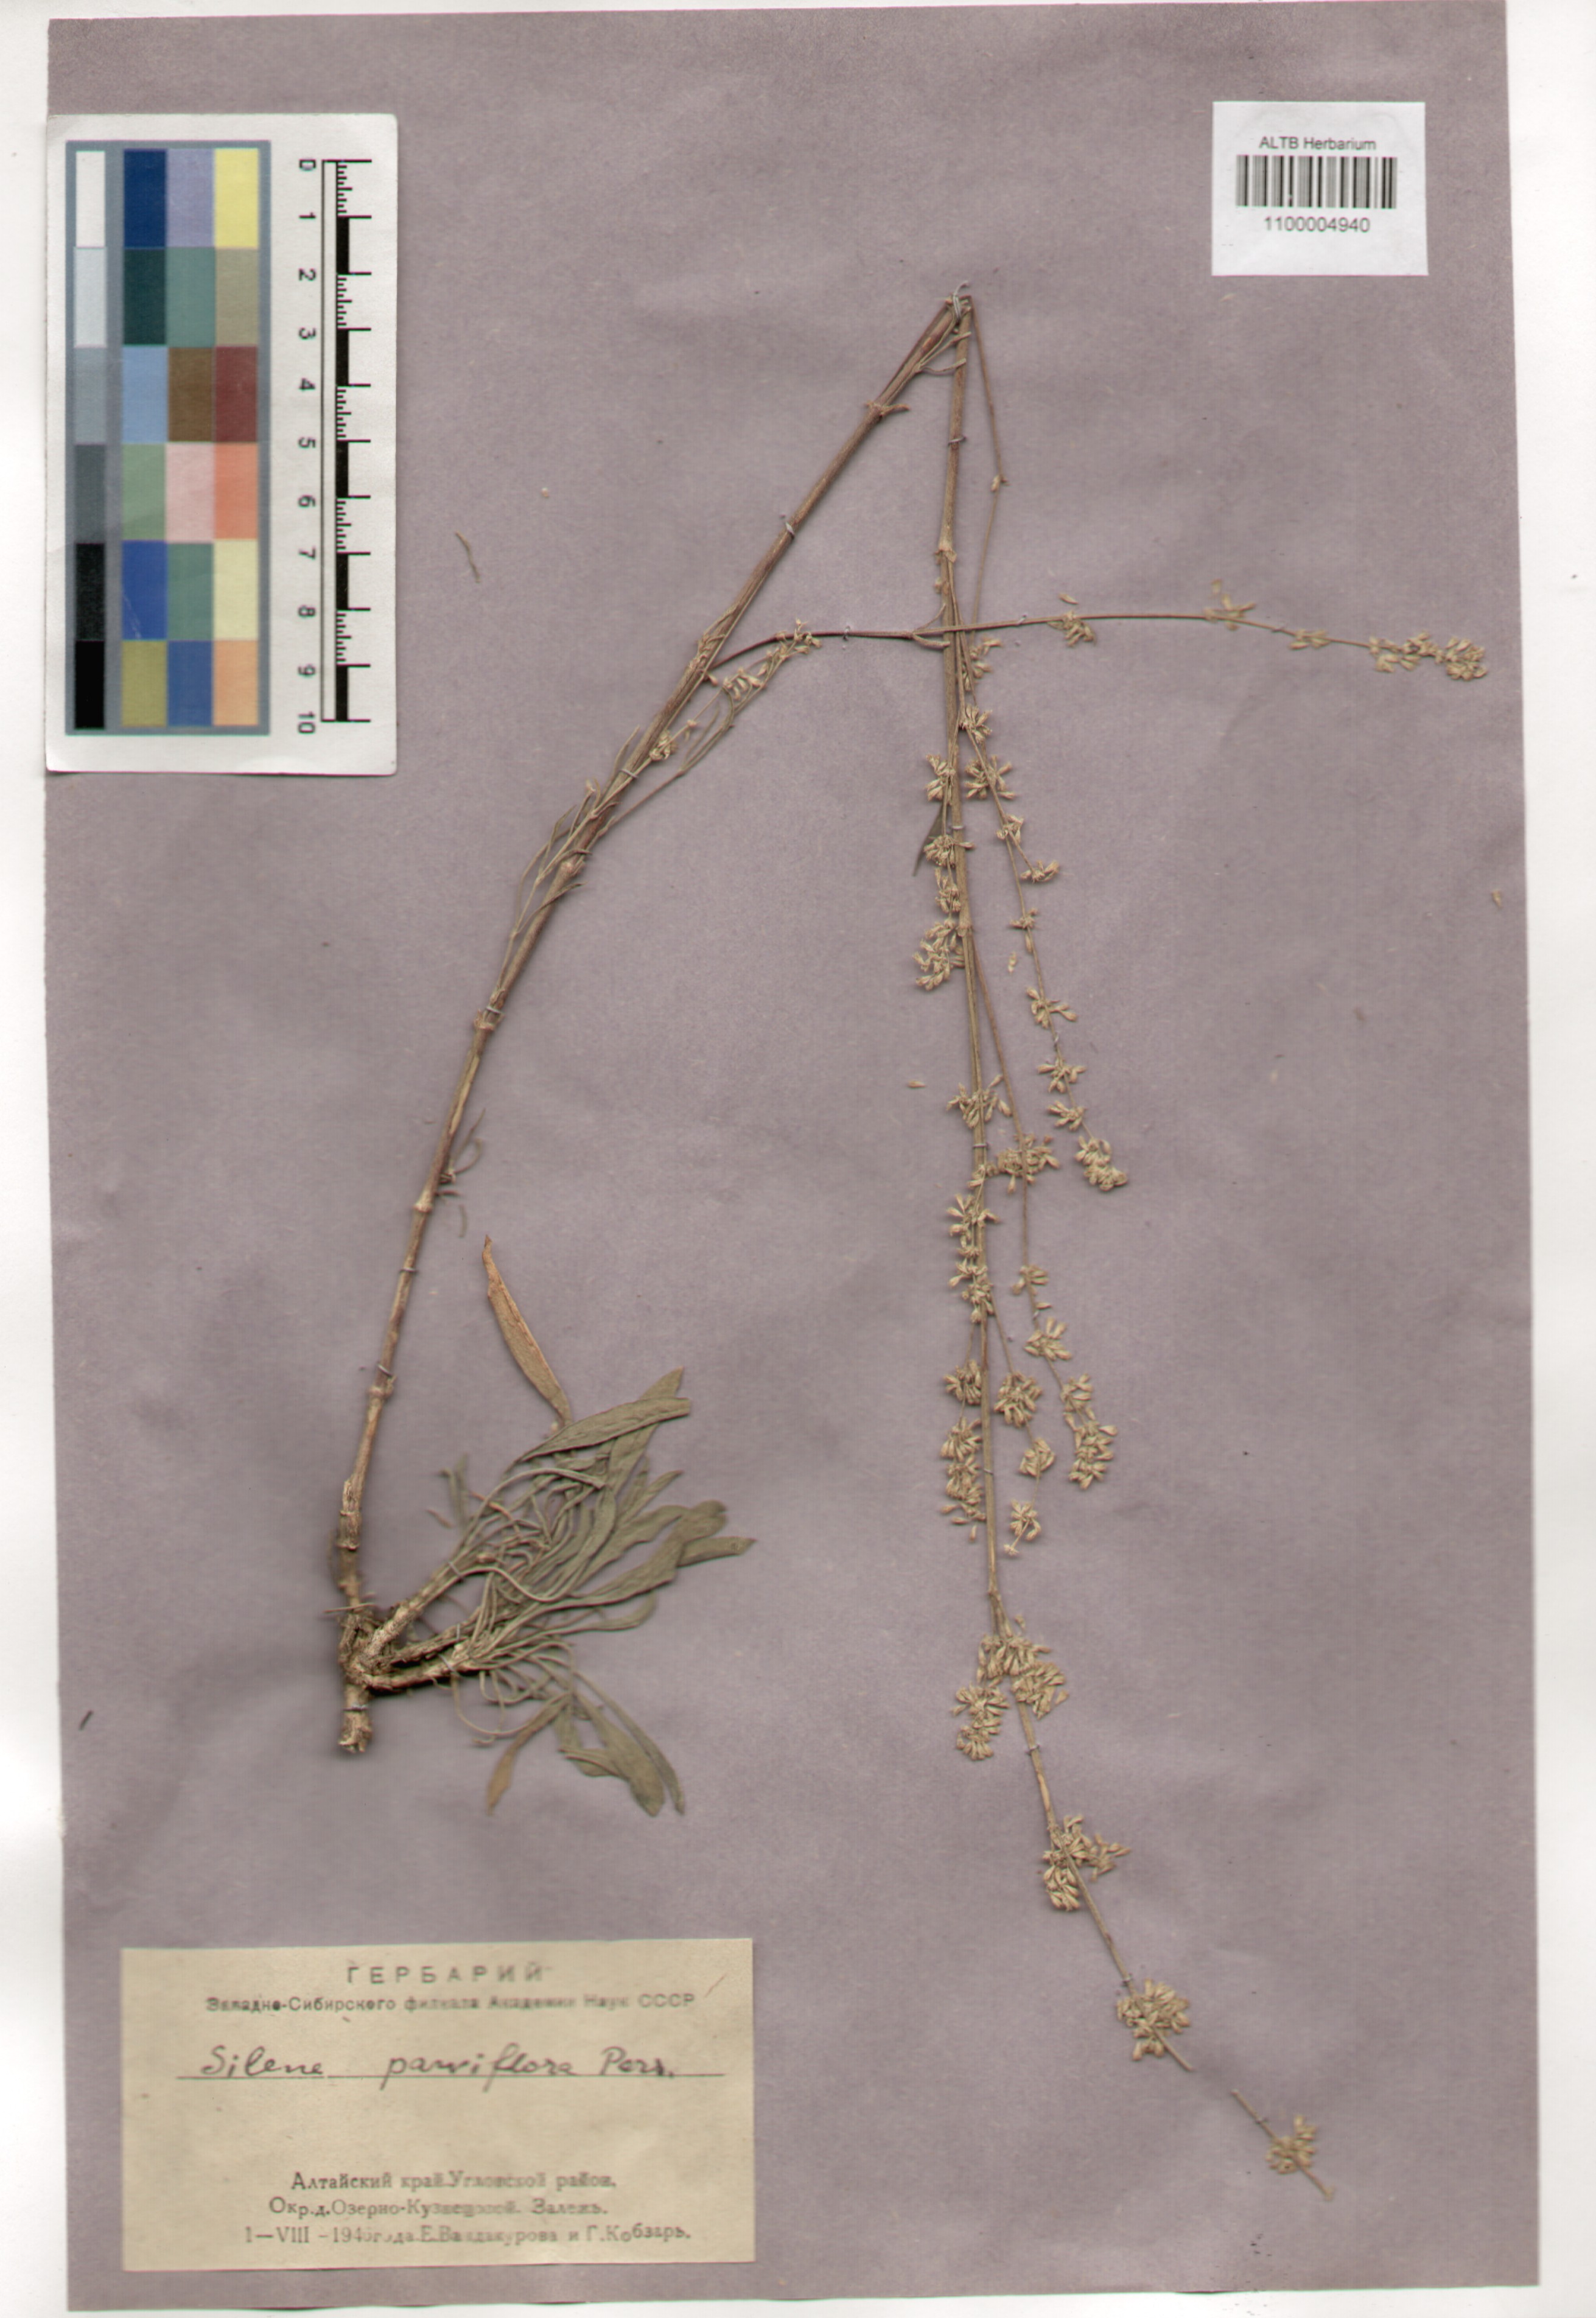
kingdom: Plantae
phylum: Tracheophyta
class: Magnoliopsida
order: Caryophyllales
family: Caryophyllaceae
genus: Silene
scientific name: Silene borysthenica
